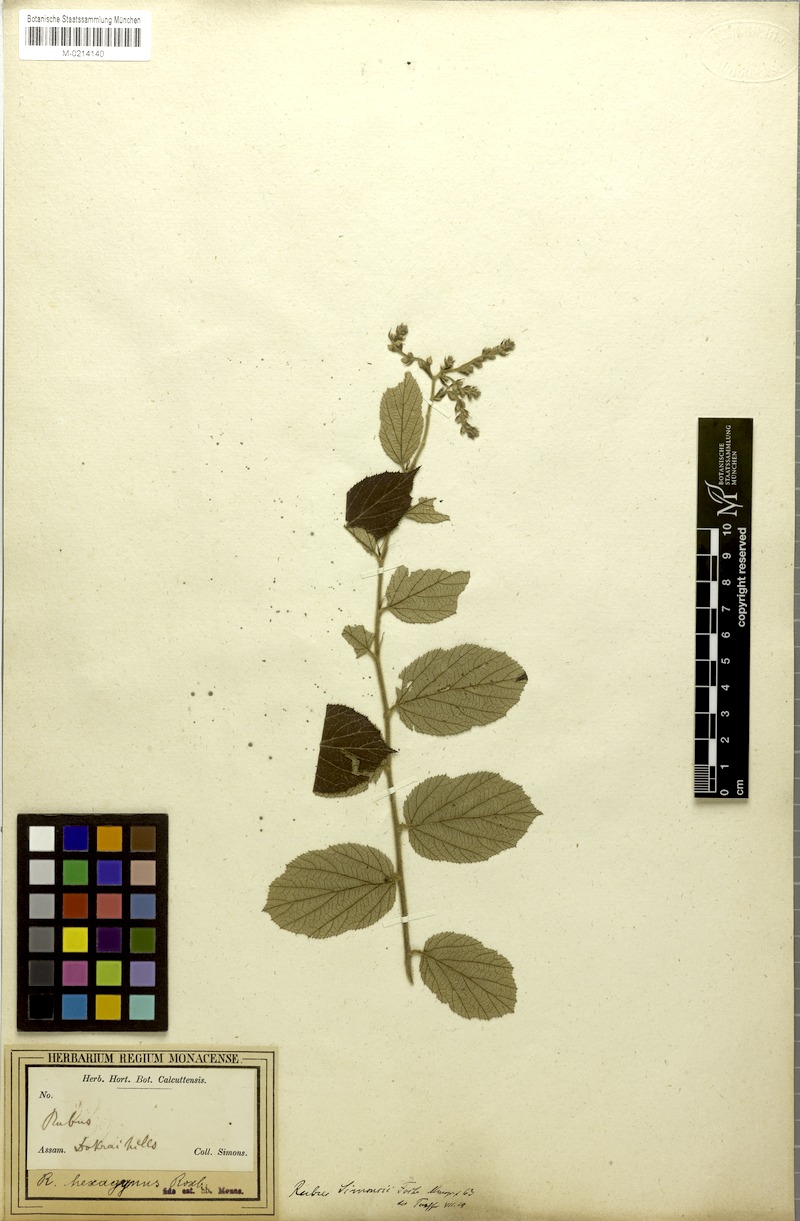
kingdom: Plantae
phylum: Tracheophyta
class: Magnoliopsida
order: Rosales
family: Rosaceae
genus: Rubus
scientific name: Rubus hexagynus
